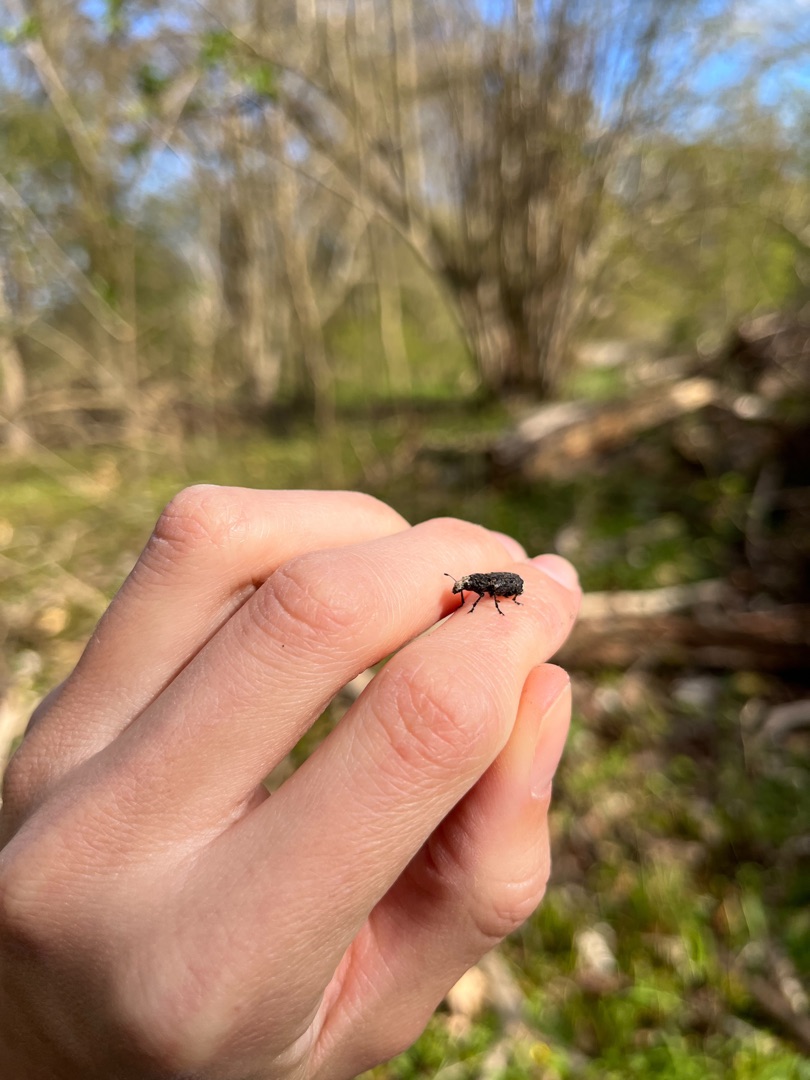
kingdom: Animalia
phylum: Arthropoda
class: Insecta
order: Coleoptera
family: Anthribidae
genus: Platyrhinus
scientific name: Platyrhinus resinosus
